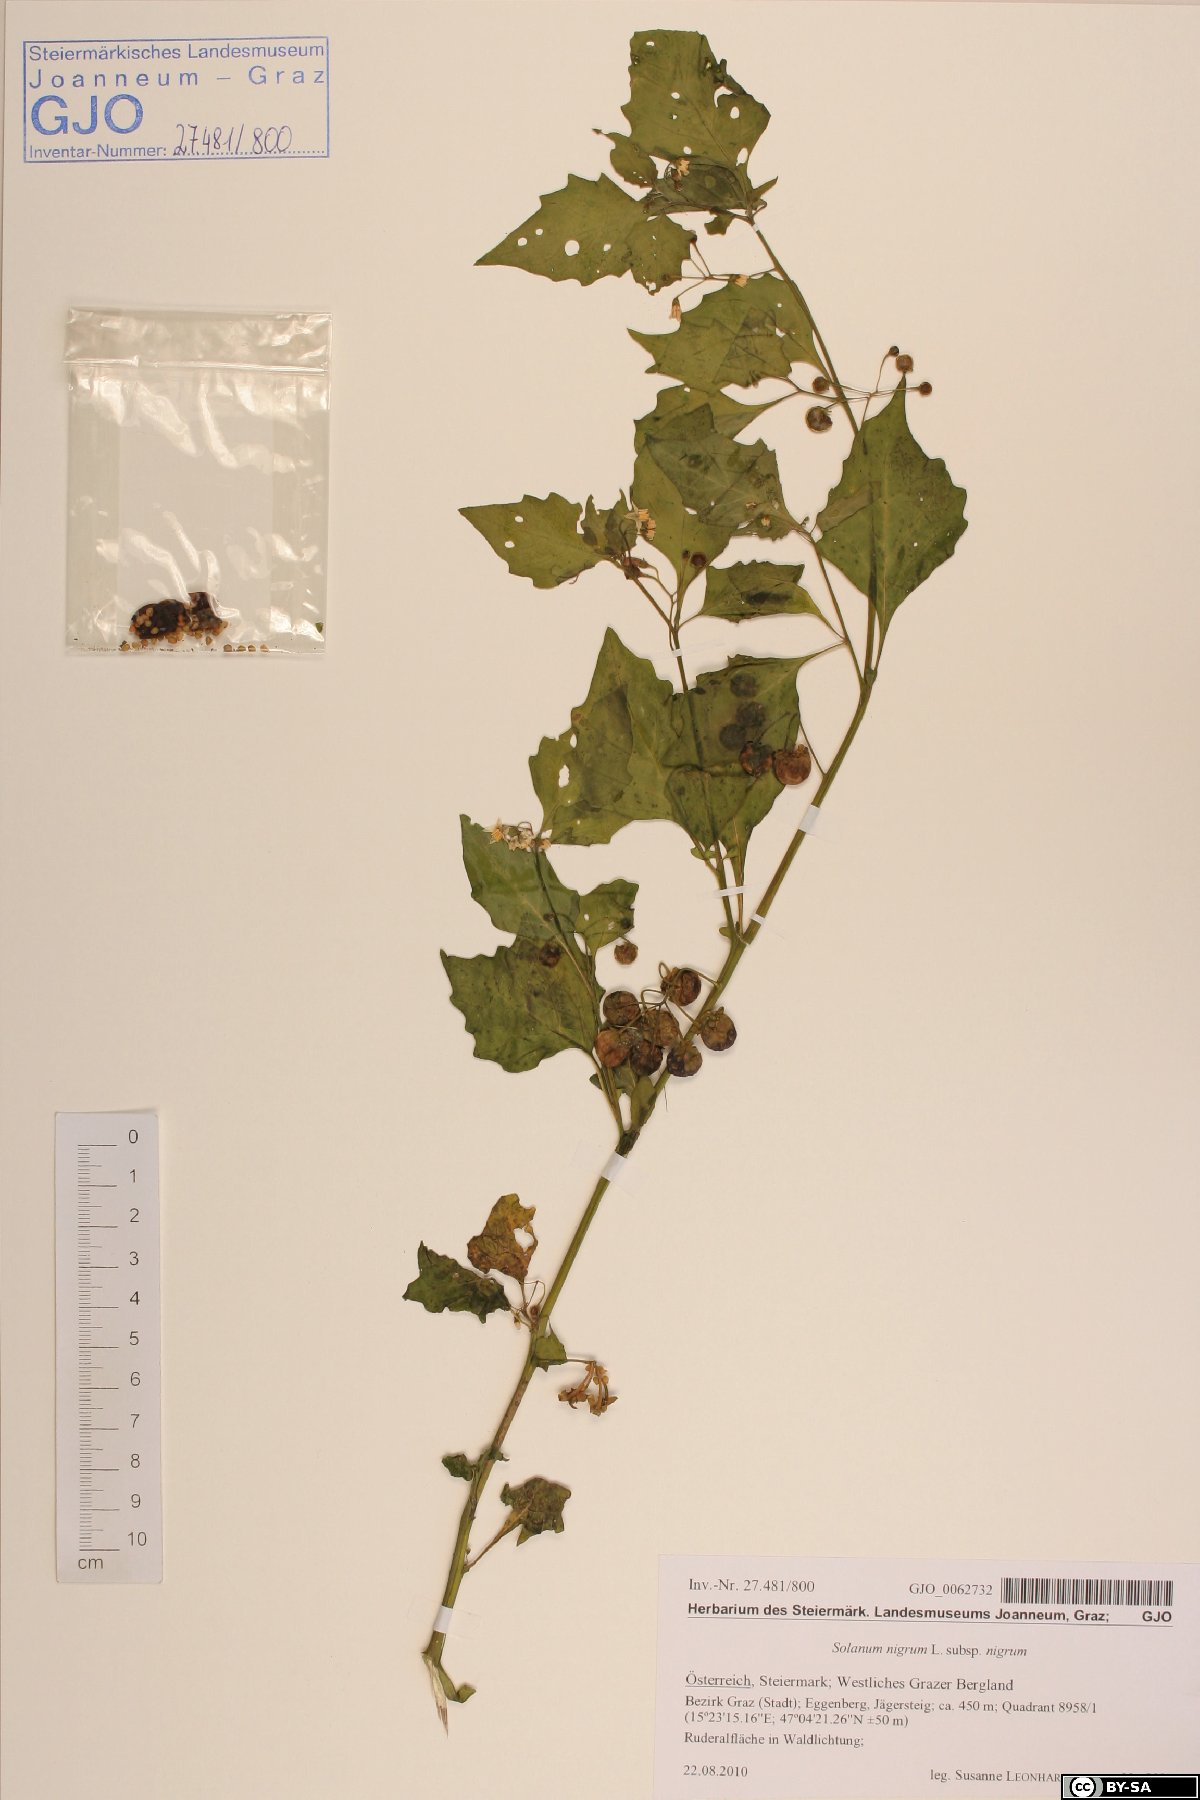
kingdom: Plantae
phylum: Tracheophyta
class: Magnoliopsida
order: Solanales
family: Solanaceae
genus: Solanum
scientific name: Solanum nigrum
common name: Black nightshade
